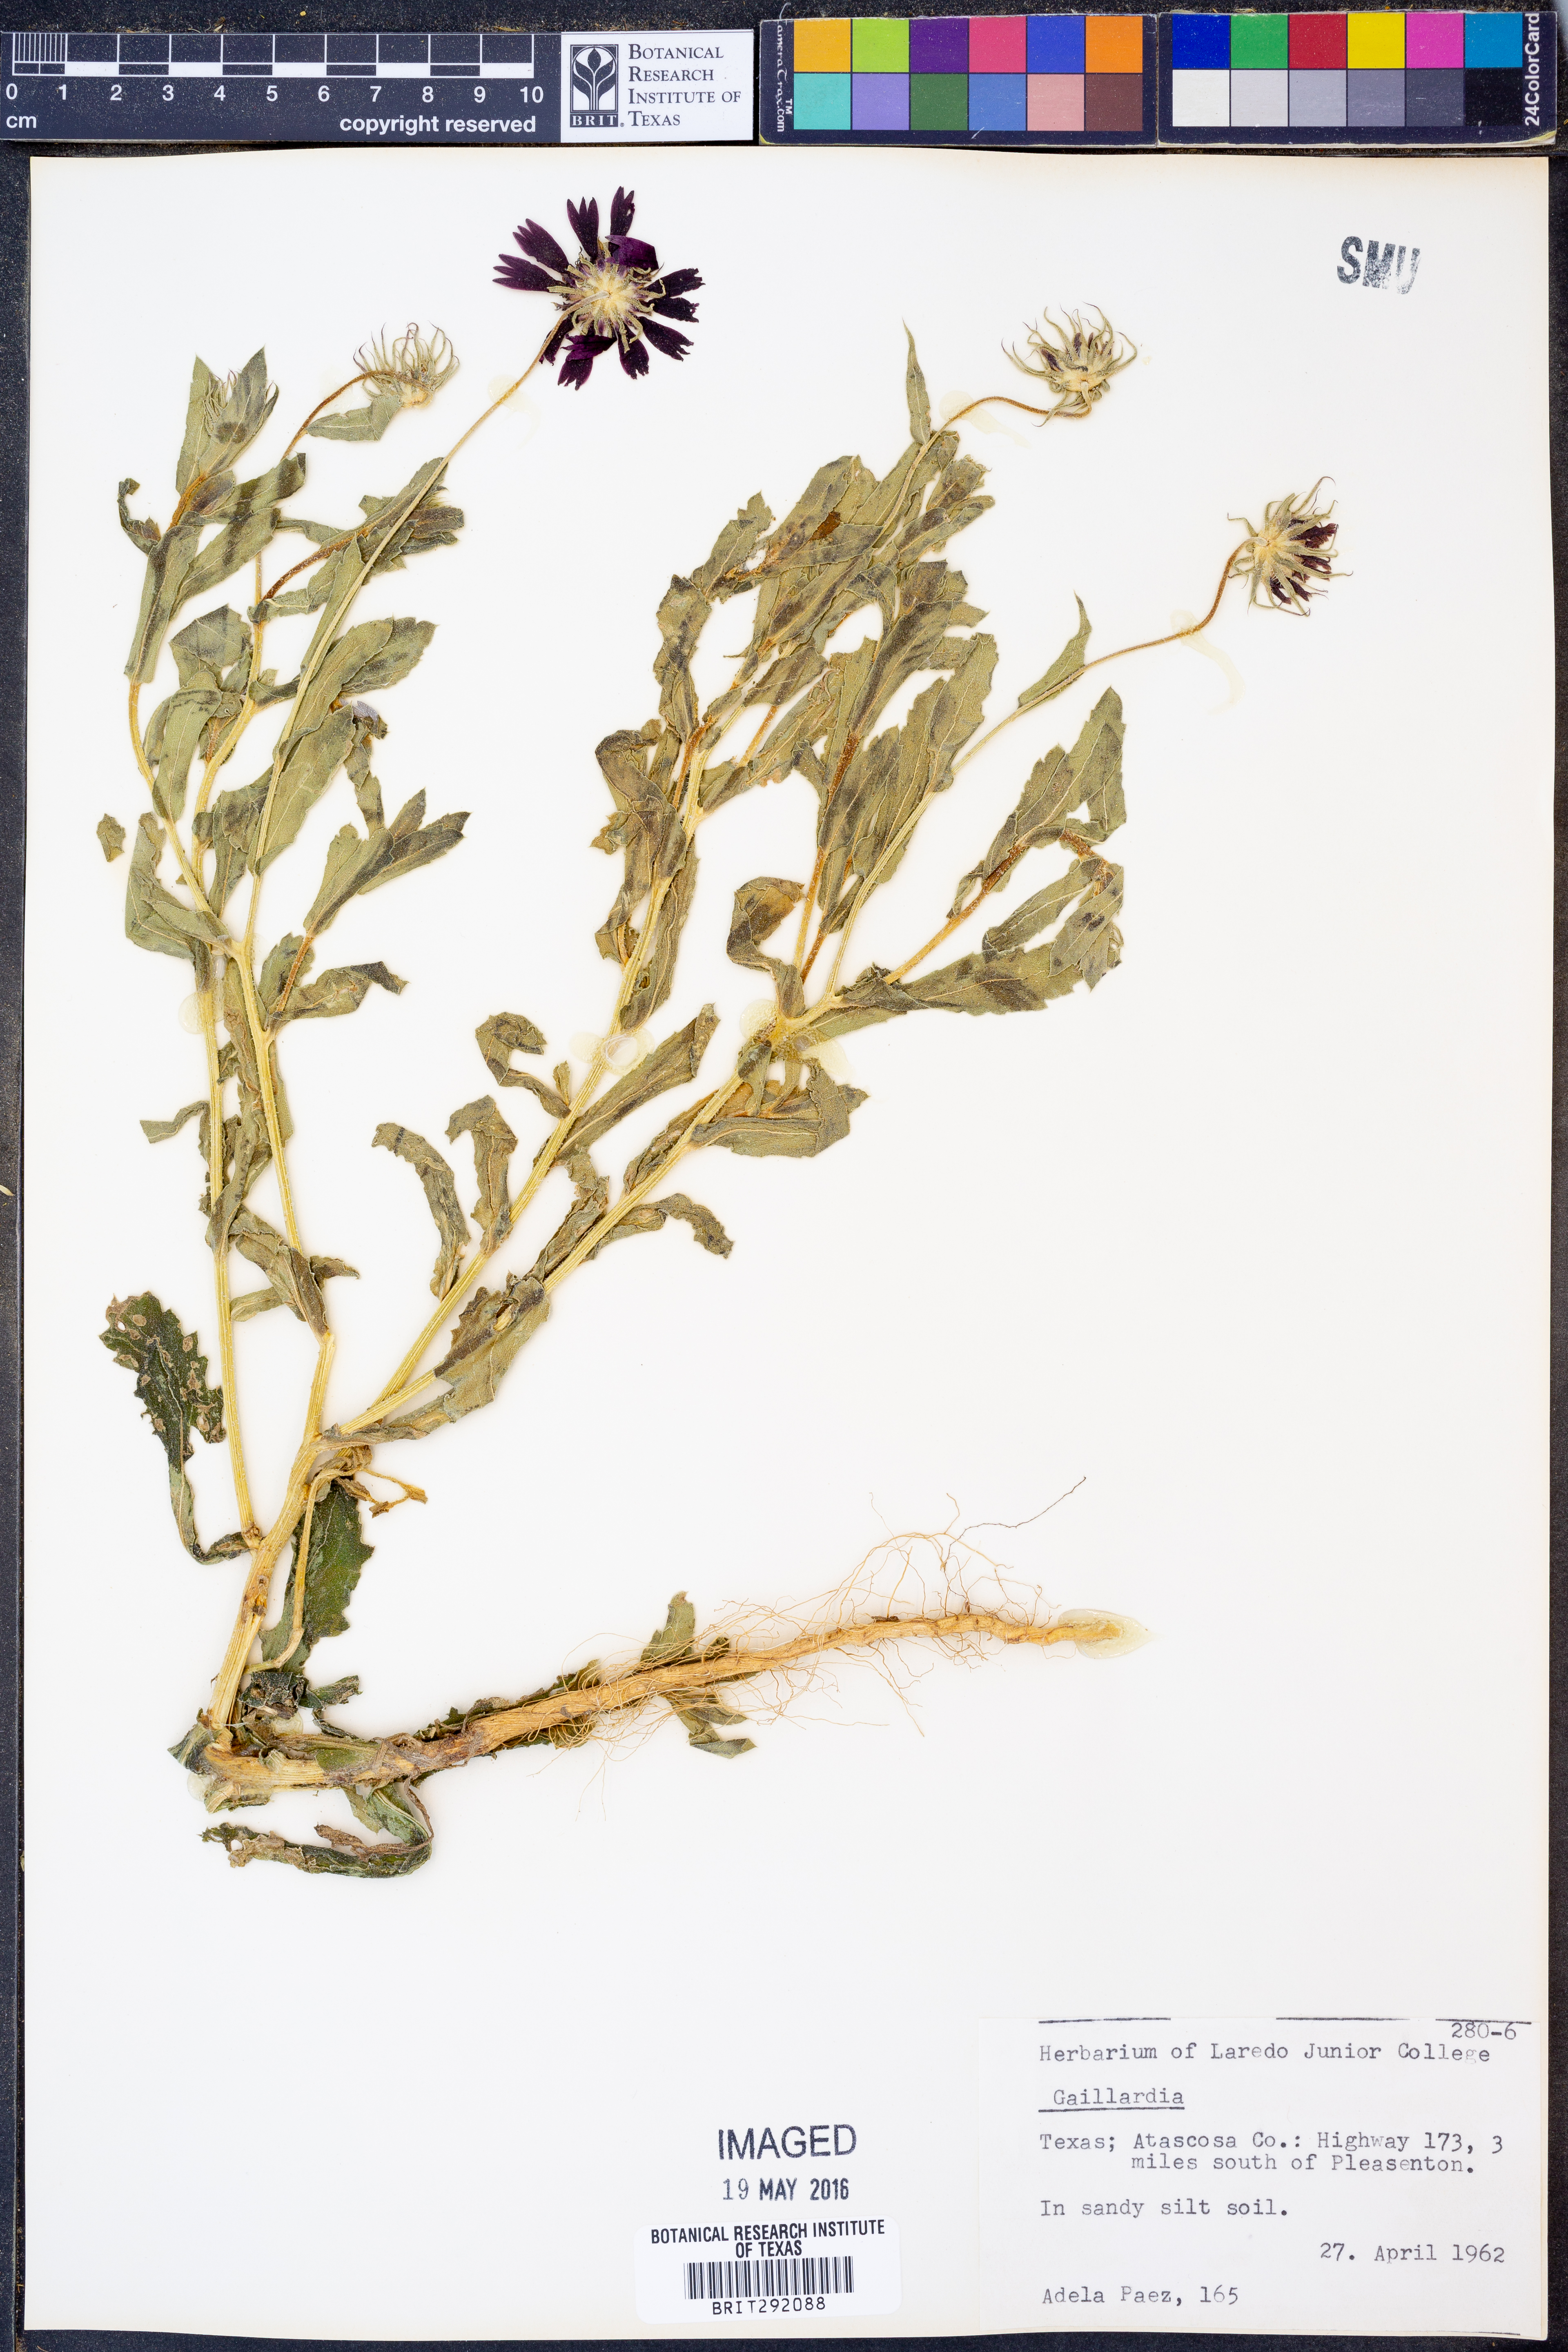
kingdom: Plantae
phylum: Tracheophyta
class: Magnoliopsida
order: Asterales
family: Asteraceae
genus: Gaillardia
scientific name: Gaillardia
